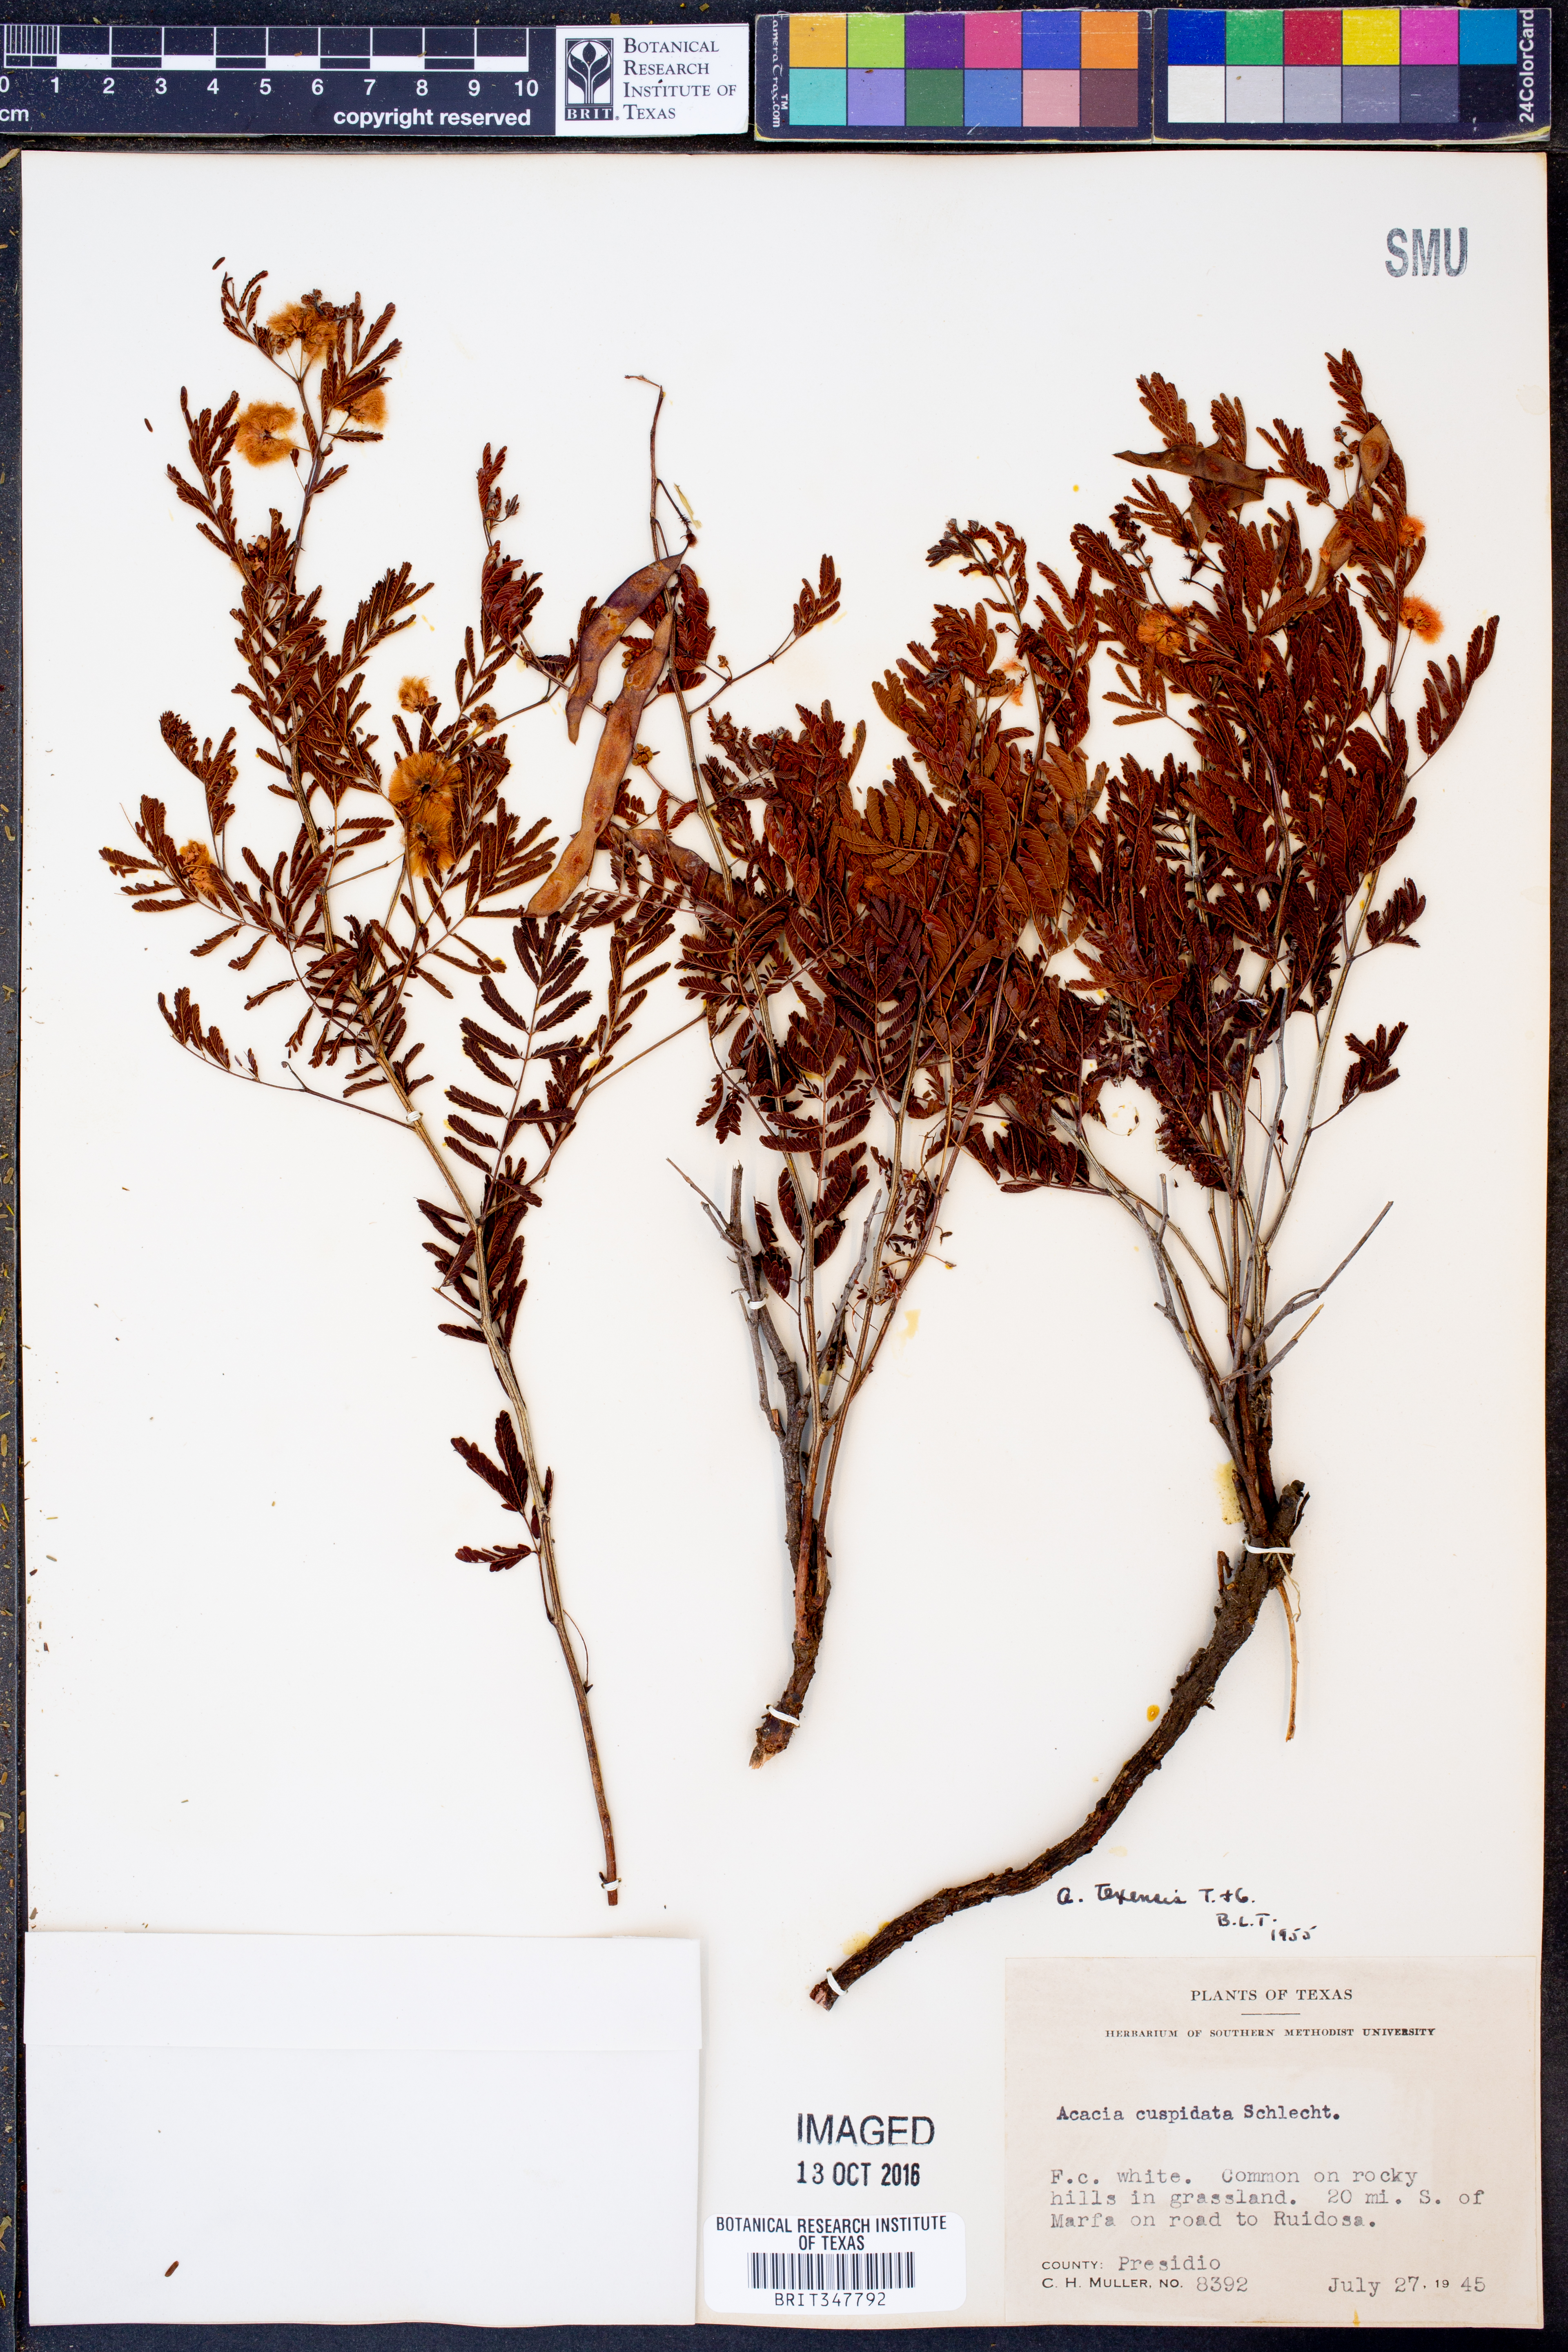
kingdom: Plantae
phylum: Tracheophyta
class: Magnoliopsida
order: Fabales
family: Fabaceae
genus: Acaciella
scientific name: Acaciella angustissima
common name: Prairie acacia
